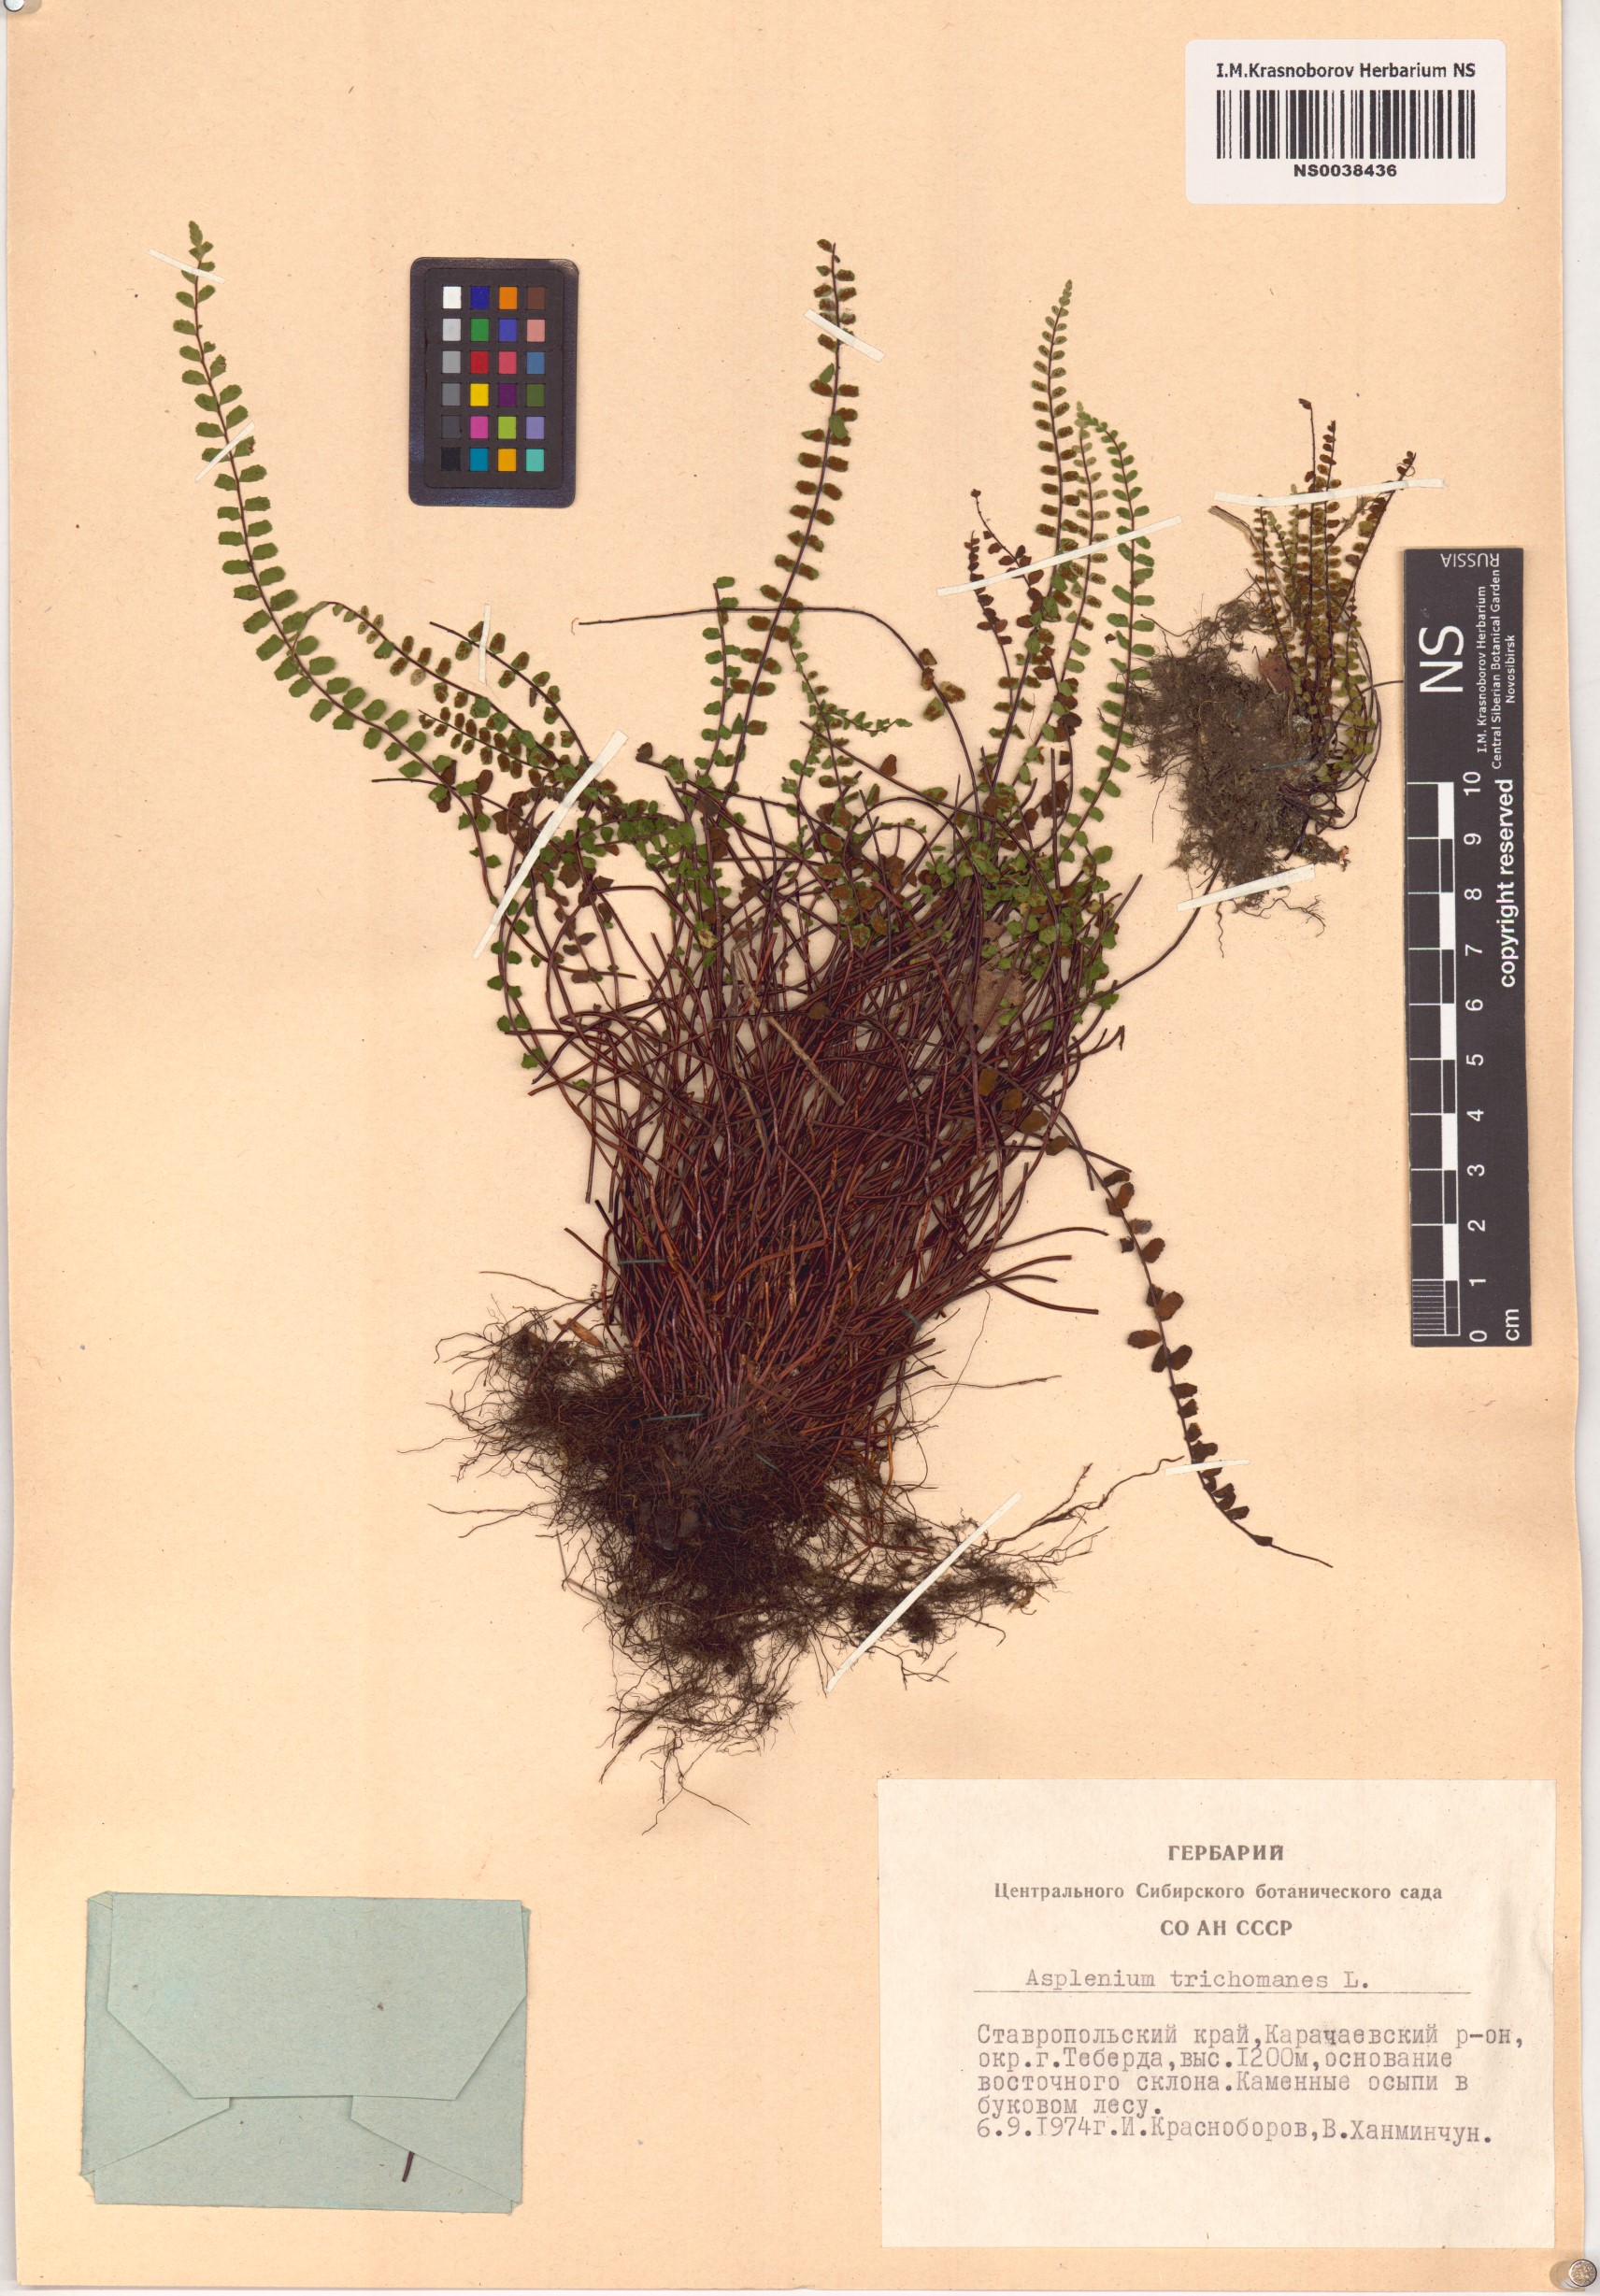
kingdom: Plantae
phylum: Tracheophyta
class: Polypodiopsida
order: Polypodiales
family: Aspleniaceae
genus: Asplenium
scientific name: Asplenium trichomanes
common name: Maidenhair spleenwort
